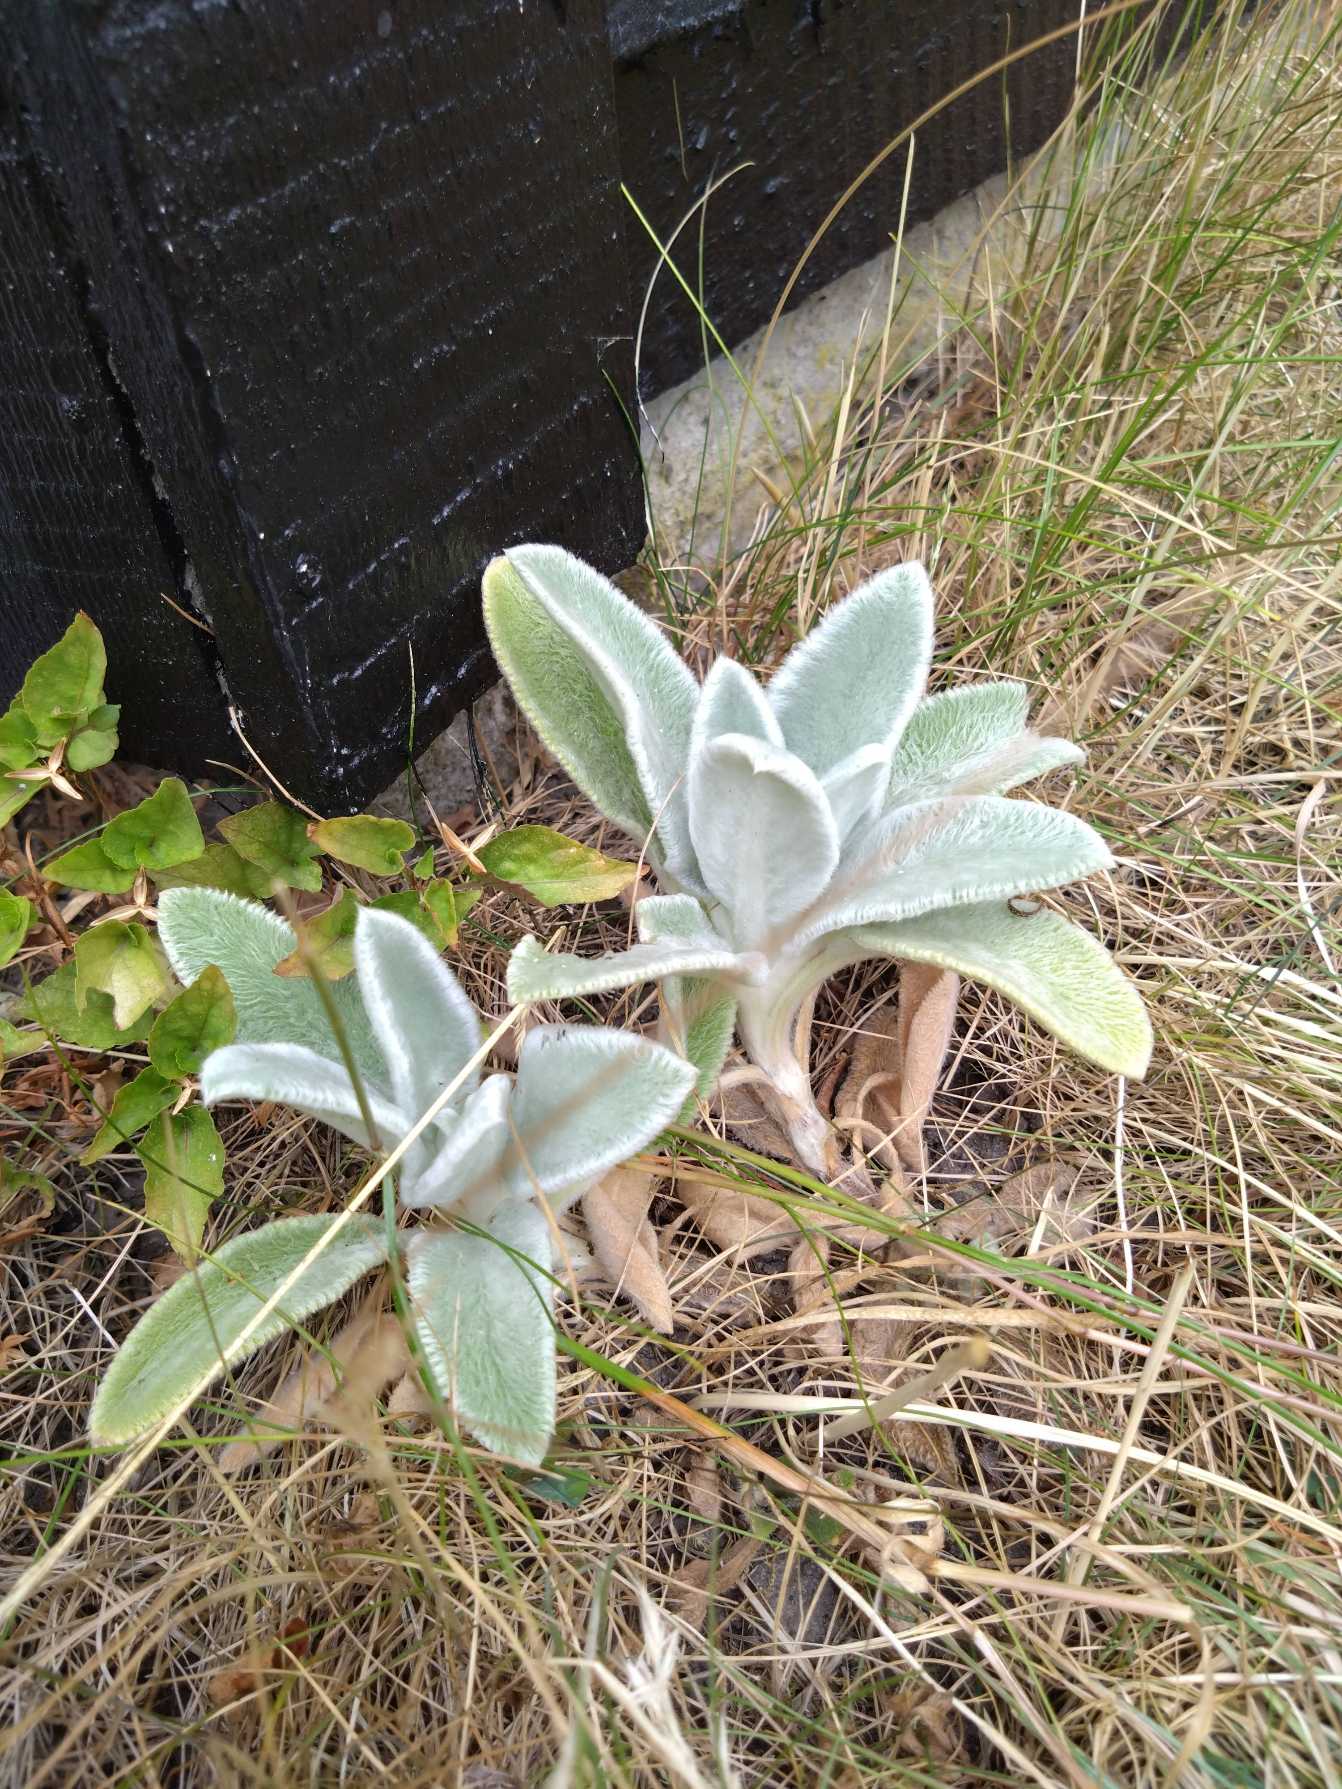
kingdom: Plantae
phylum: Tracheophyta
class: Magnoliopsida
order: Lamiales
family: Lamiaceae
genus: Stachys
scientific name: Stachys byzantina
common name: Lammeøre
